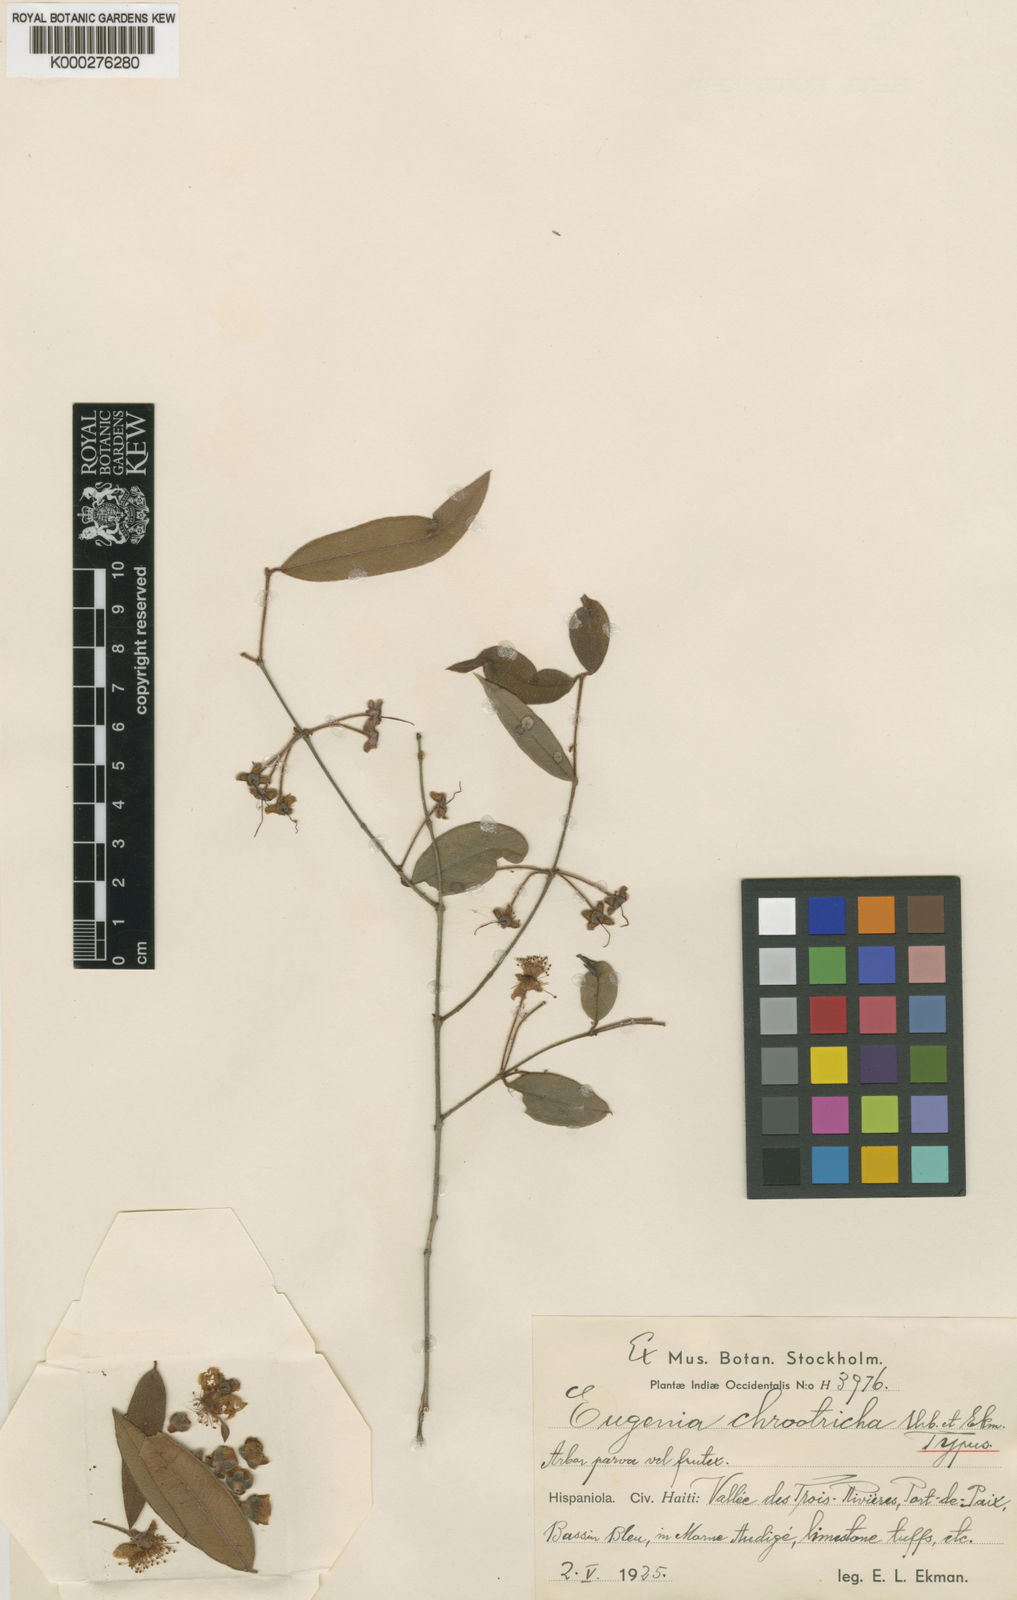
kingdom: Plantae
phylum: Tracheophyta
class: Magnoliopsida
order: Myrtales
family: Myrtaceae
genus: Eugenia
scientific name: Eugenia chrootricha
